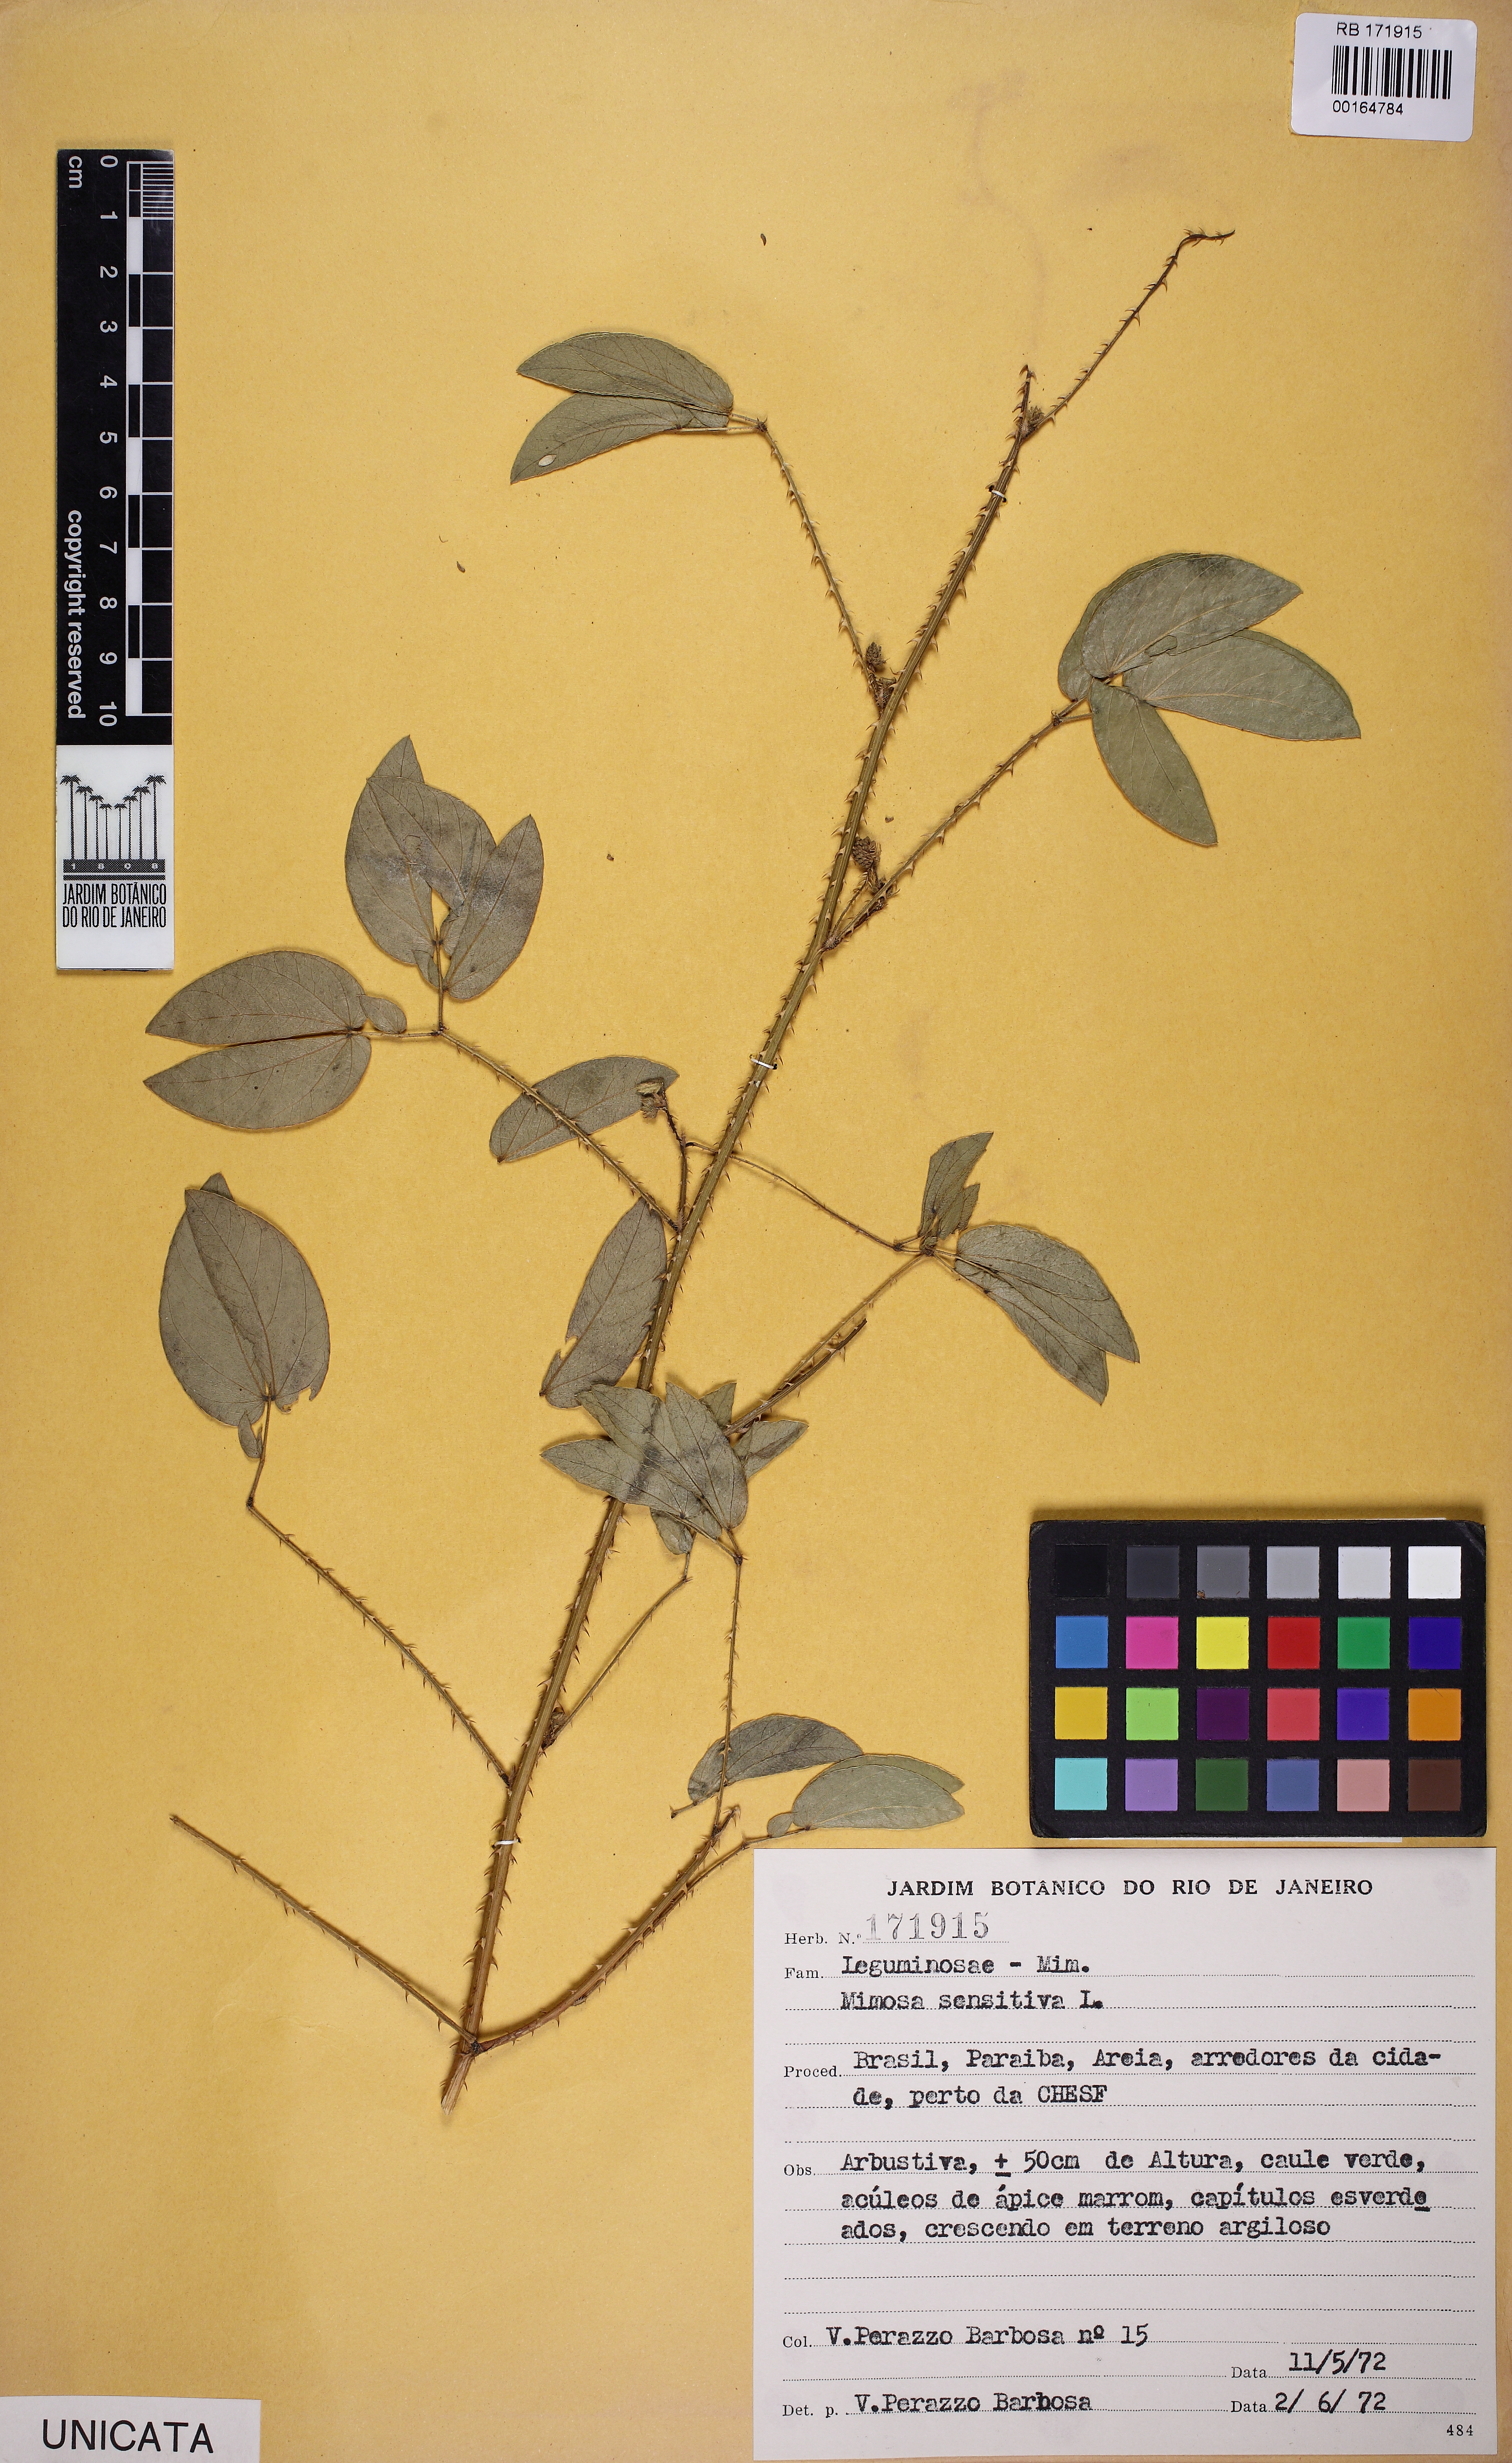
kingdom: Plantae
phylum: Tracheophyta
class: Magnoliopsida
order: Fabales
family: Fabaceae
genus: Mimosa
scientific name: Mimosa sensitiva
